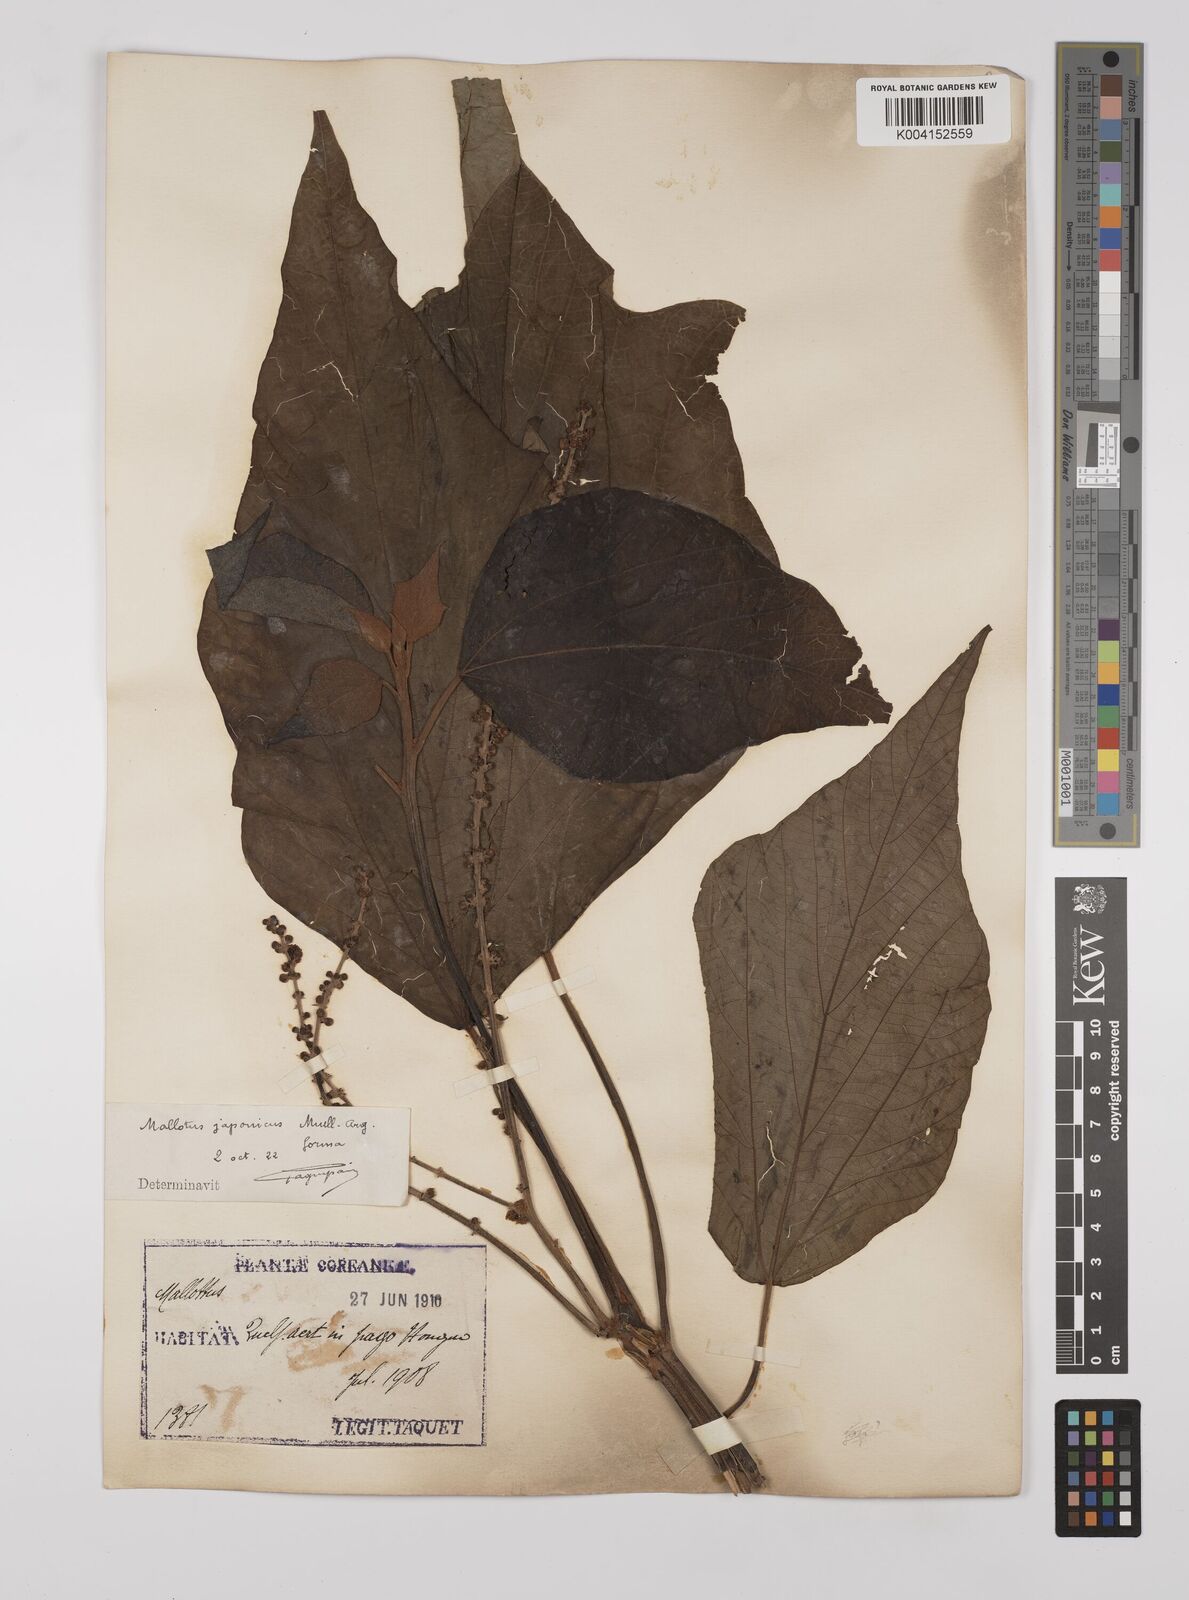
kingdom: Plantae
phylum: Tracheophyta
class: Magnoliopsida
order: Malpighiales
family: Euphorbiaceae
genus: Mallotus
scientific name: Mallotus japonicus
